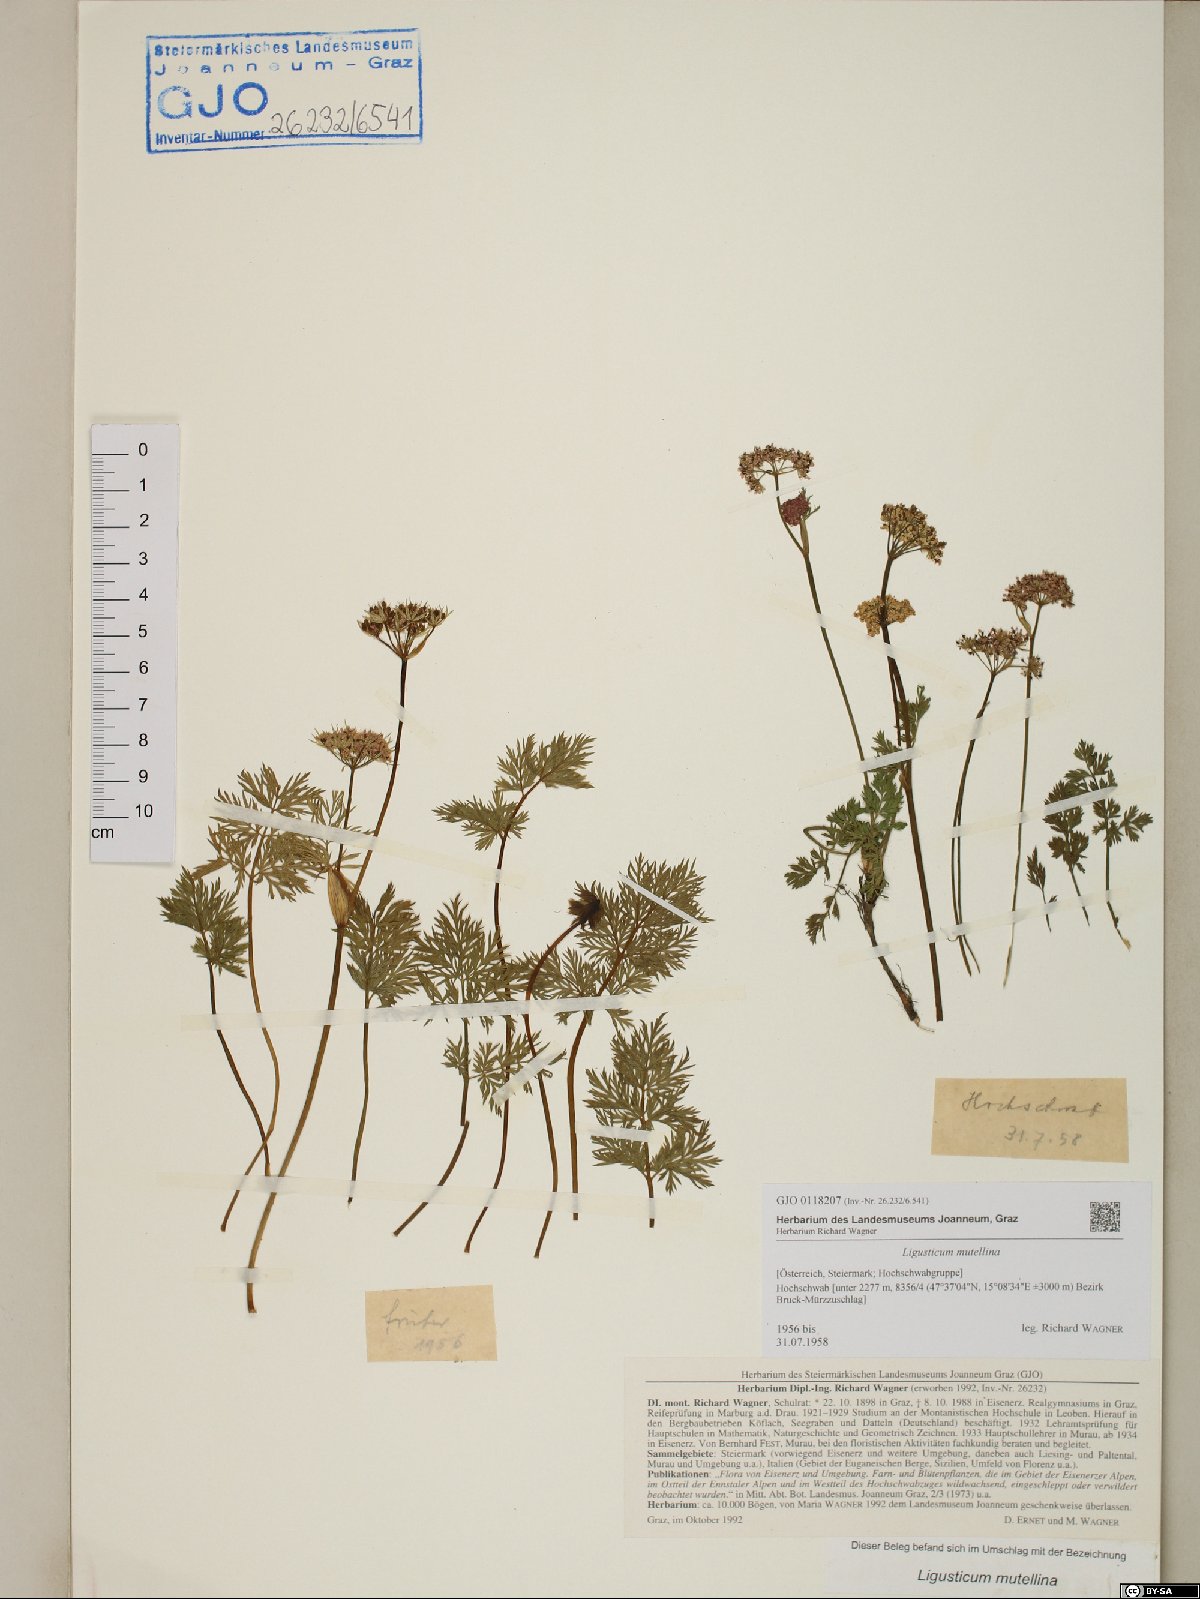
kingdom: Plantae
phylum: Tracheophyta
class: Magnoliopsida
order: Apiales
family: Apiaceae
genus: Mutellina
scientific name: Mutellina adonidifolia
